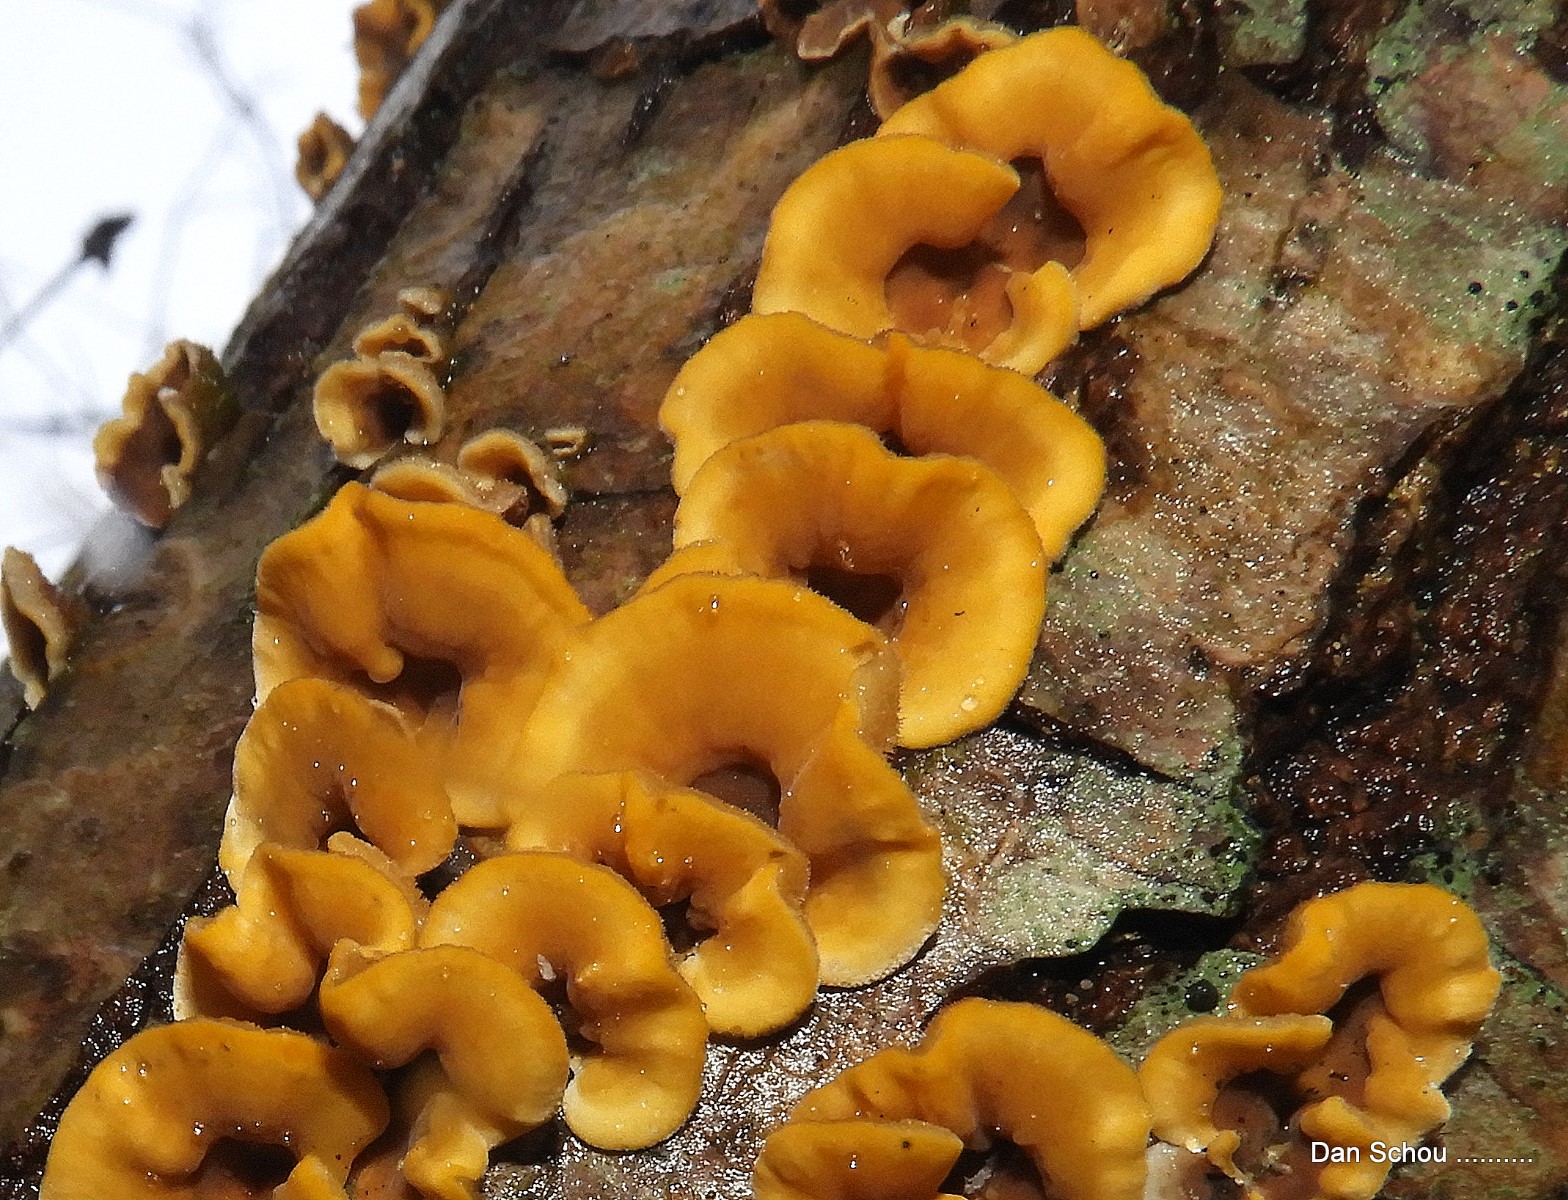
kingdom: Fungi
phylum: Basidiomycota
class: Agaricomycetes
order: Russulales
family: Stereaceae
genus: Stereum
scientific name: Stereum hirsutum
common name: håret lædersvamp
